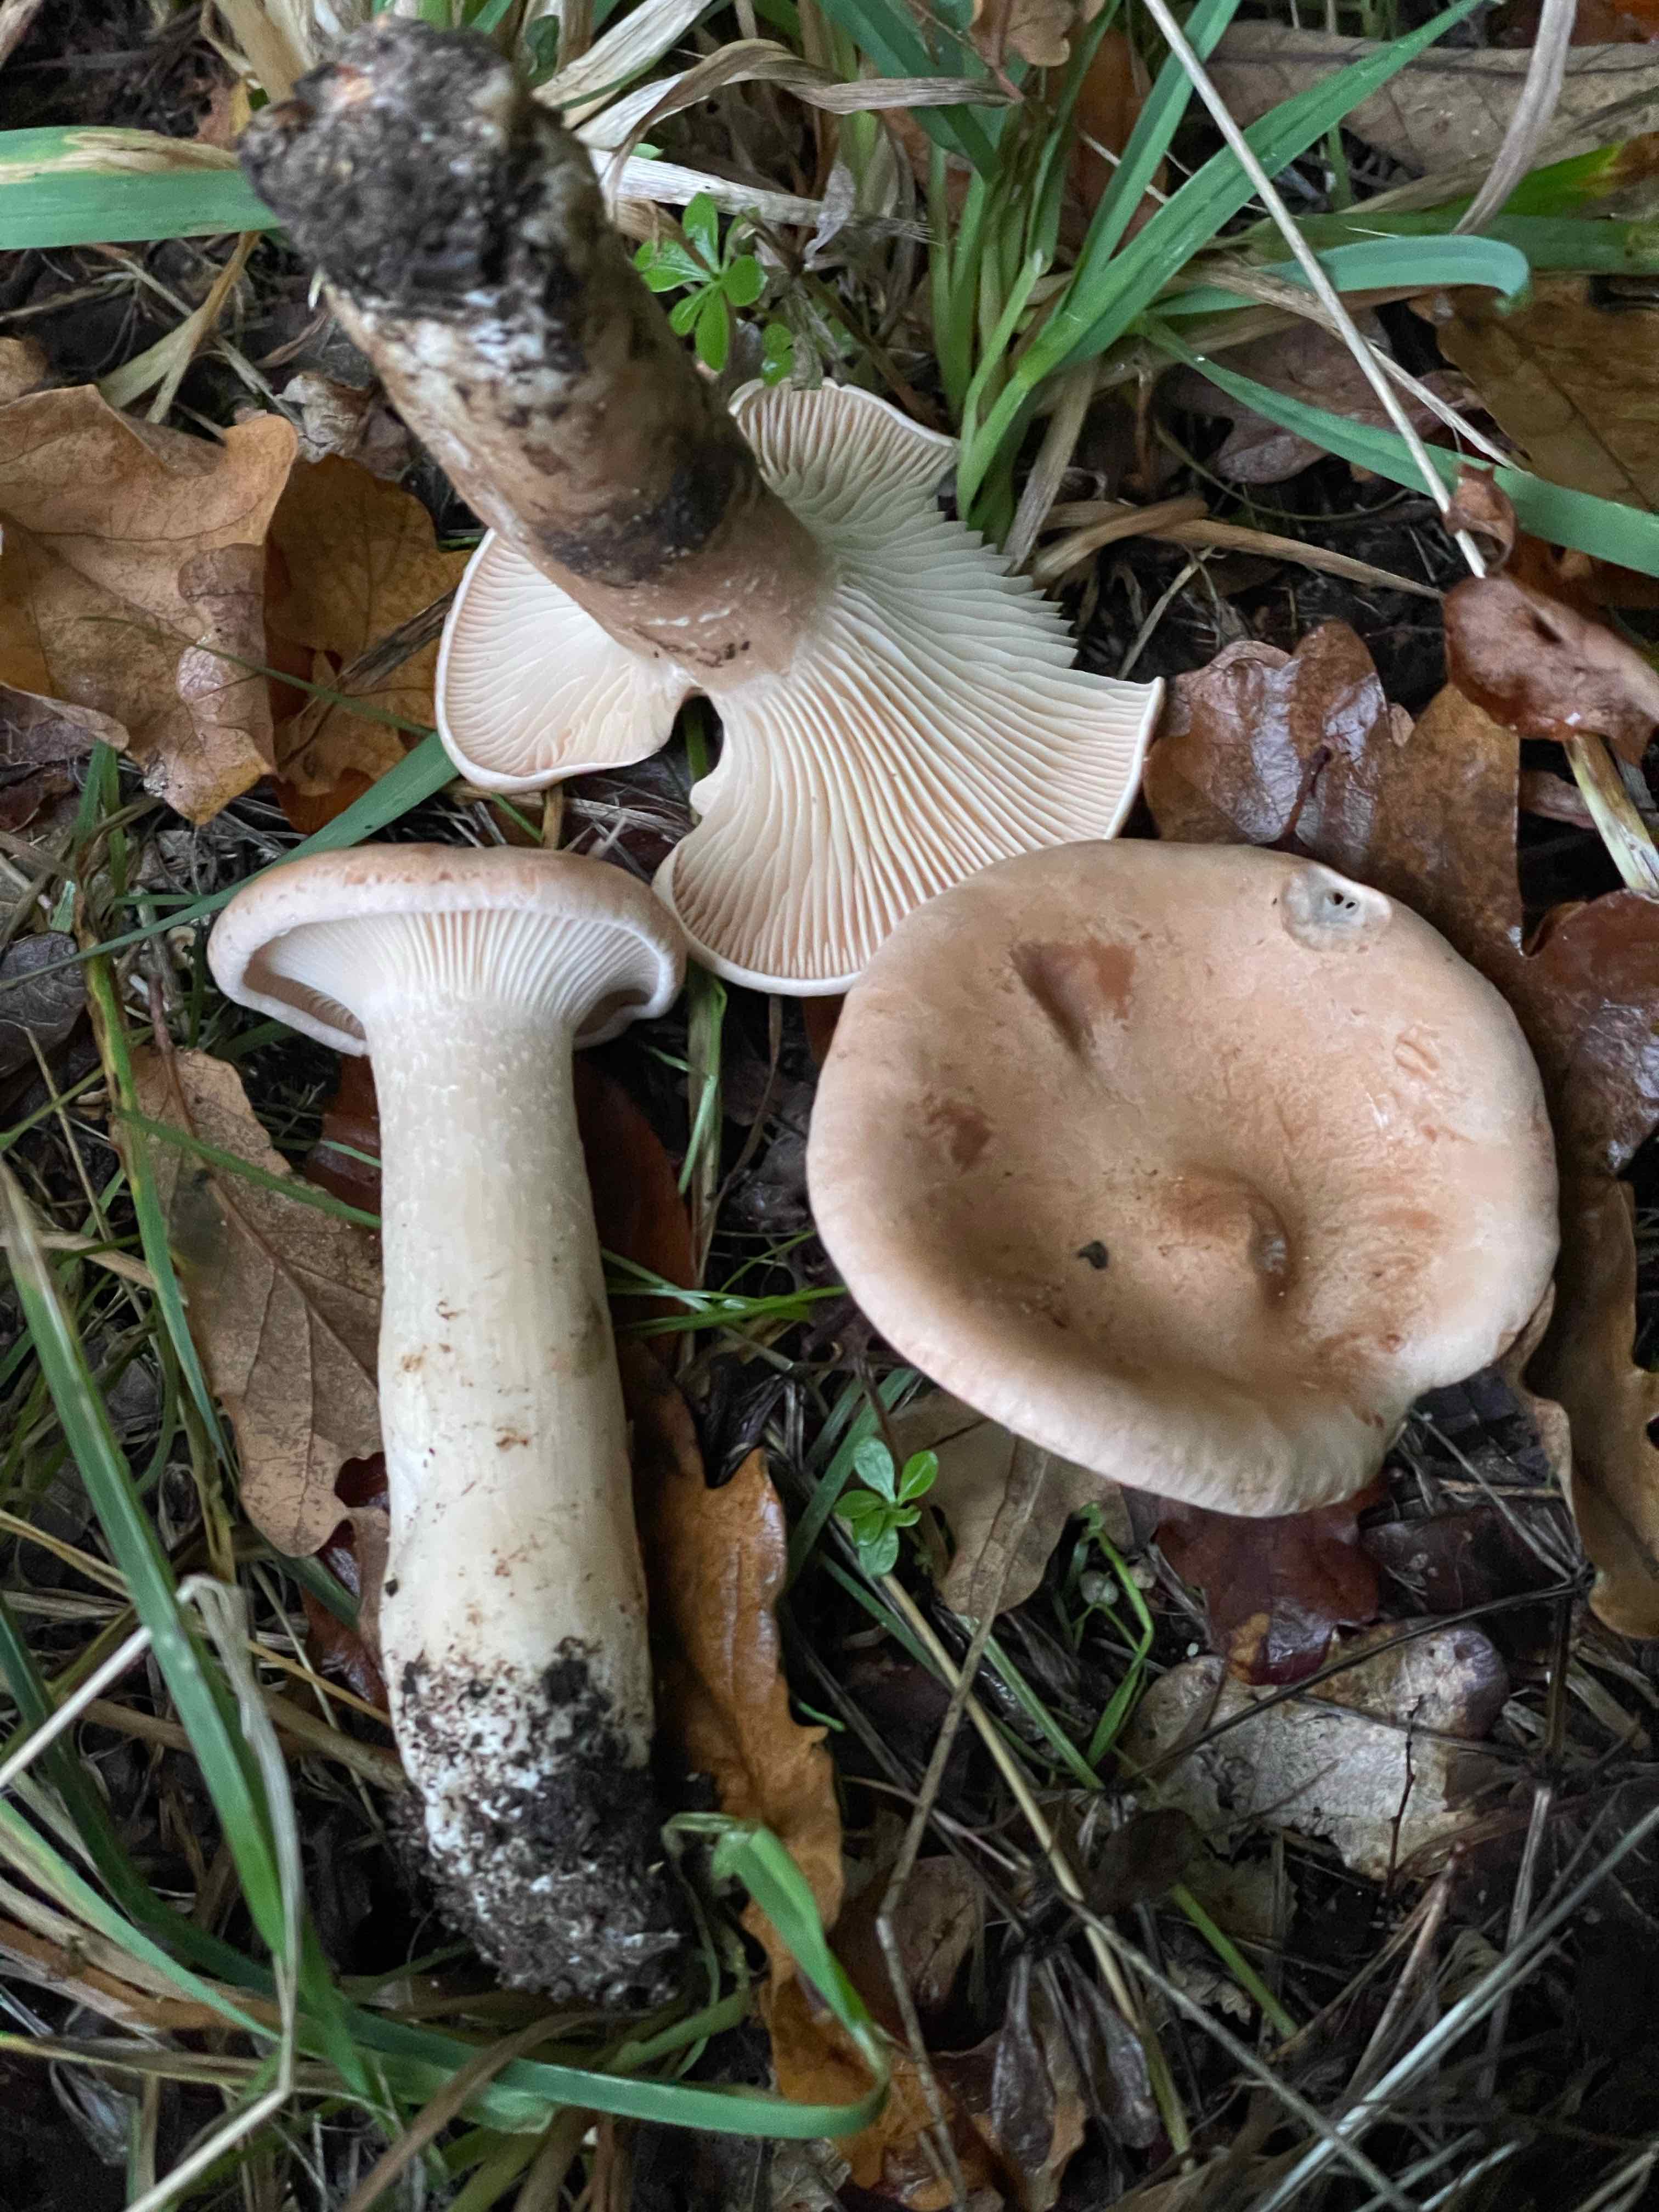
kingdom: Fungi
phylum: Basidiomycota
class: Agaricomycetes
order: Agaricales
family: Tricholomataceae
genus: Infundibulicybe
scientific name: Infundibulicybe geotropa
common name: stor tragthat
